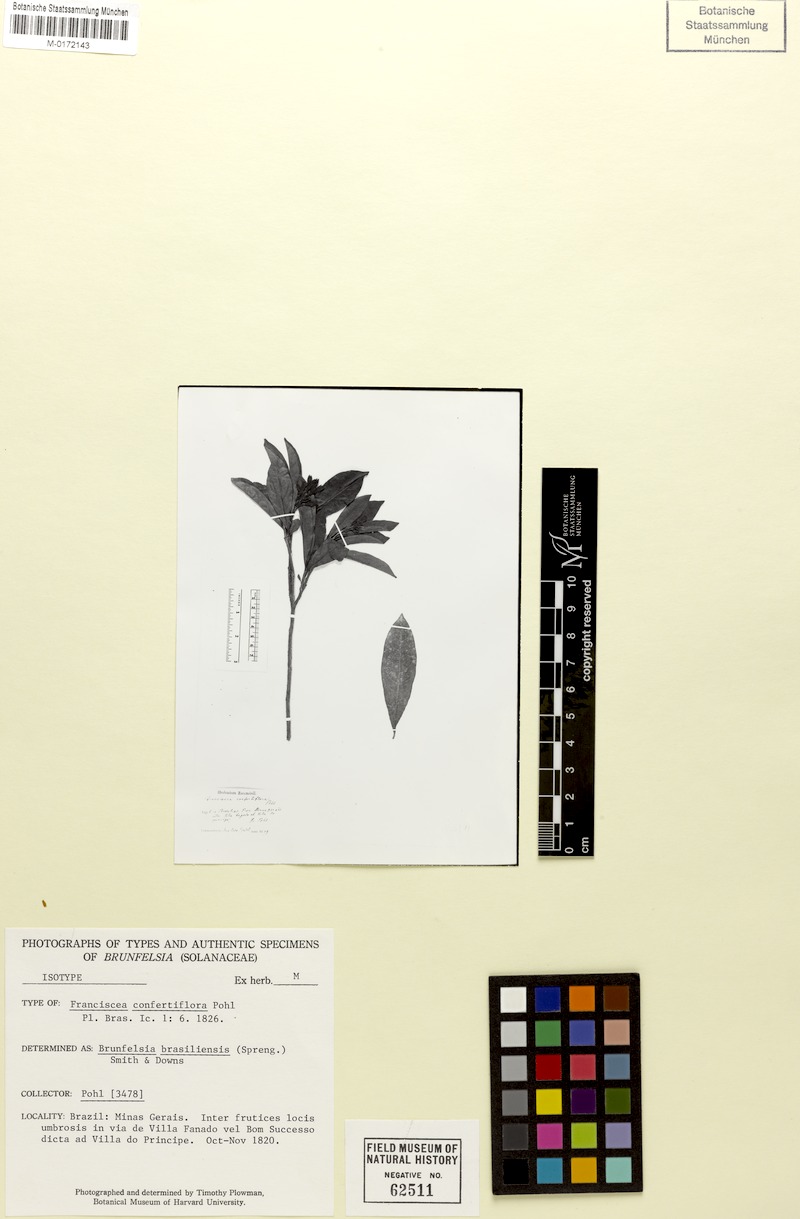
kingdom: Plantae
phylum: Tracheophyta
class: Magnoliopsida
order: Solanales
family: Solanaceae
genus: Brunfelsia
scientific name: Brunfelsia brasiliensis
